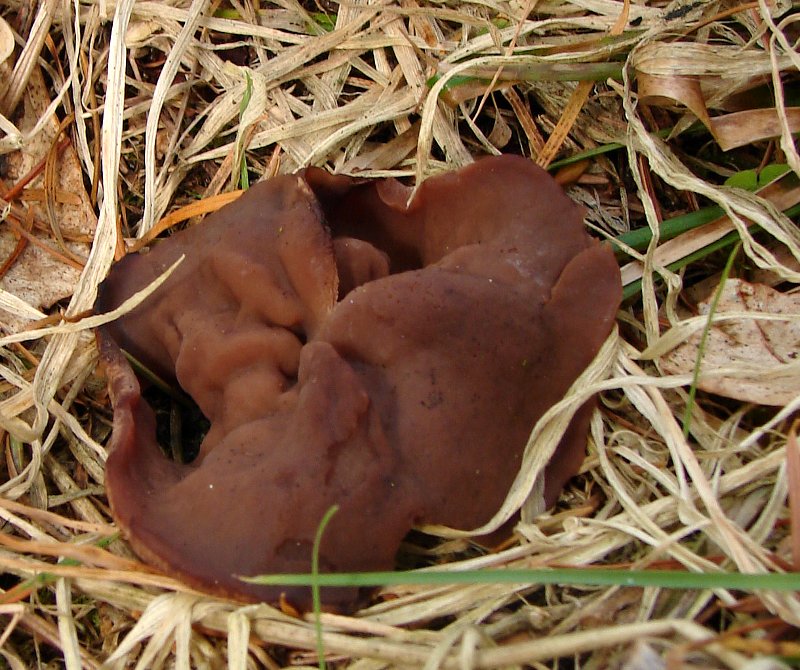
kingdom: Fungi
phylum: Ascomycota
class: Pezizomycetes
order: Pezizales
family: Discinaceae
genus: Discina
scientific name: Discina ancilis
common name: udbredt stenmorkel
